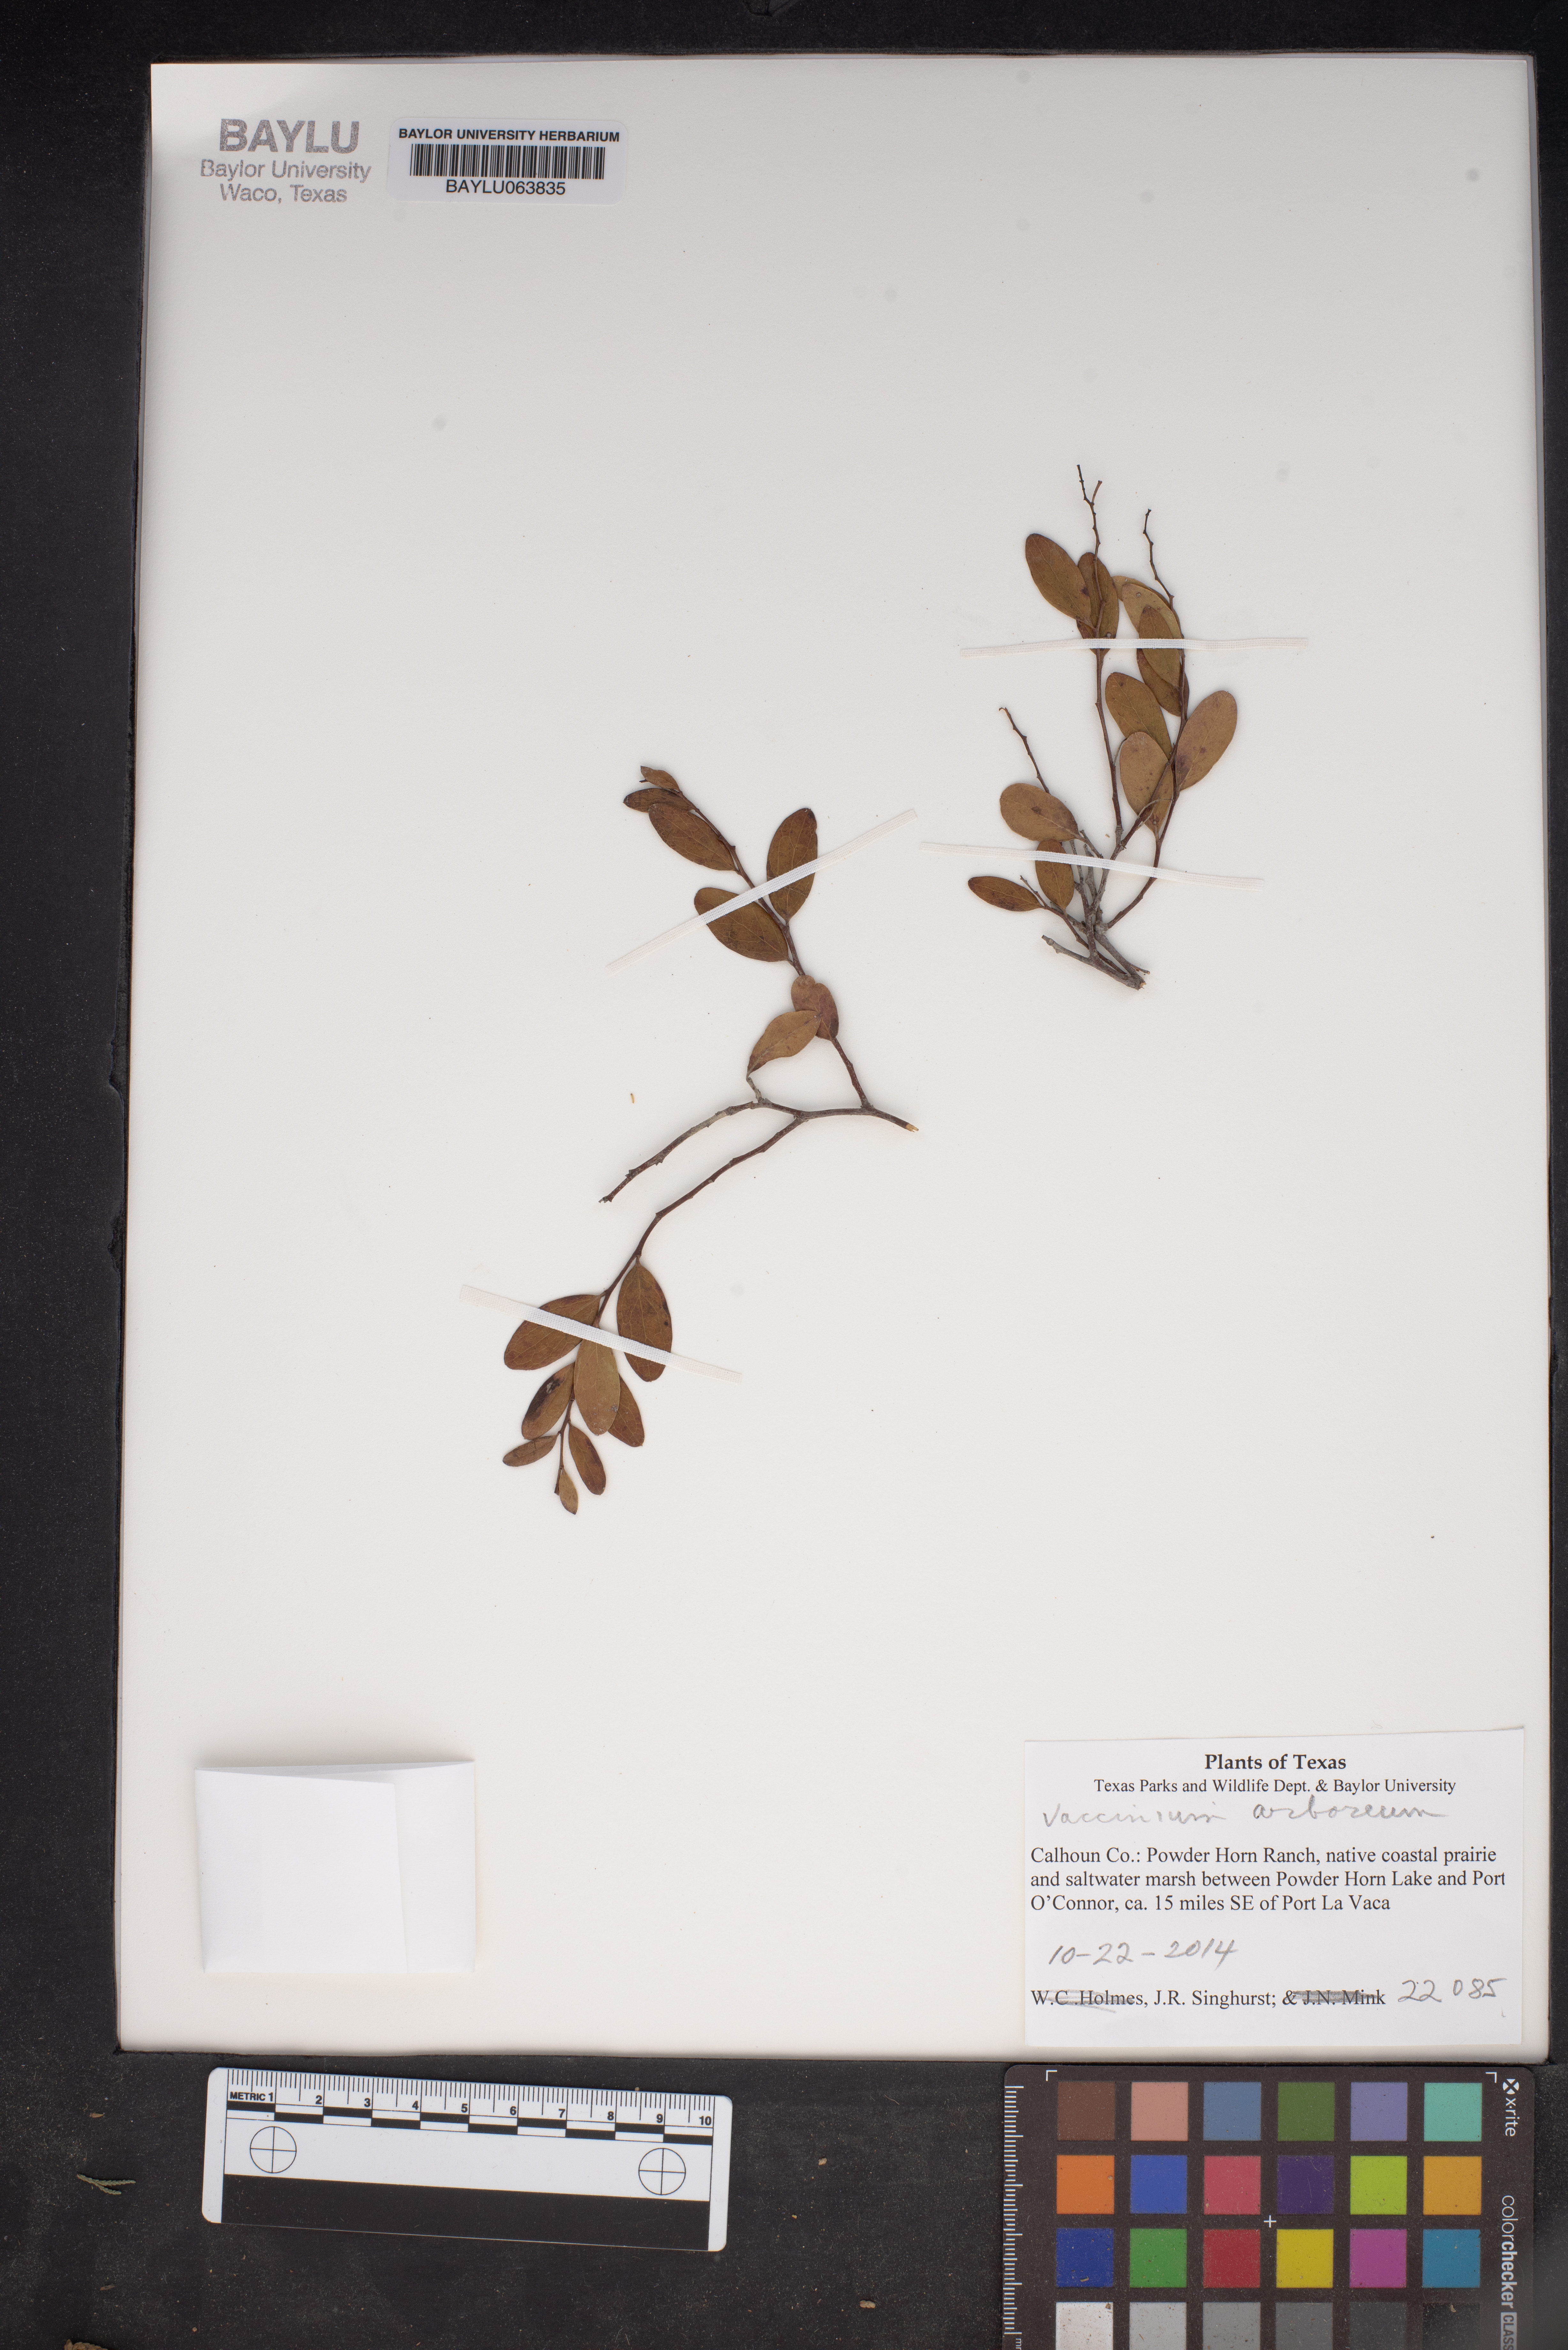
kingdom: Plantae
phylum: Tracheophyta
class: Magnoliopsida
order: Ericales
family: Ericaceae
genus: Vaccinium
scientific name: Vaccinium arboreum
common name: Farkleberry
